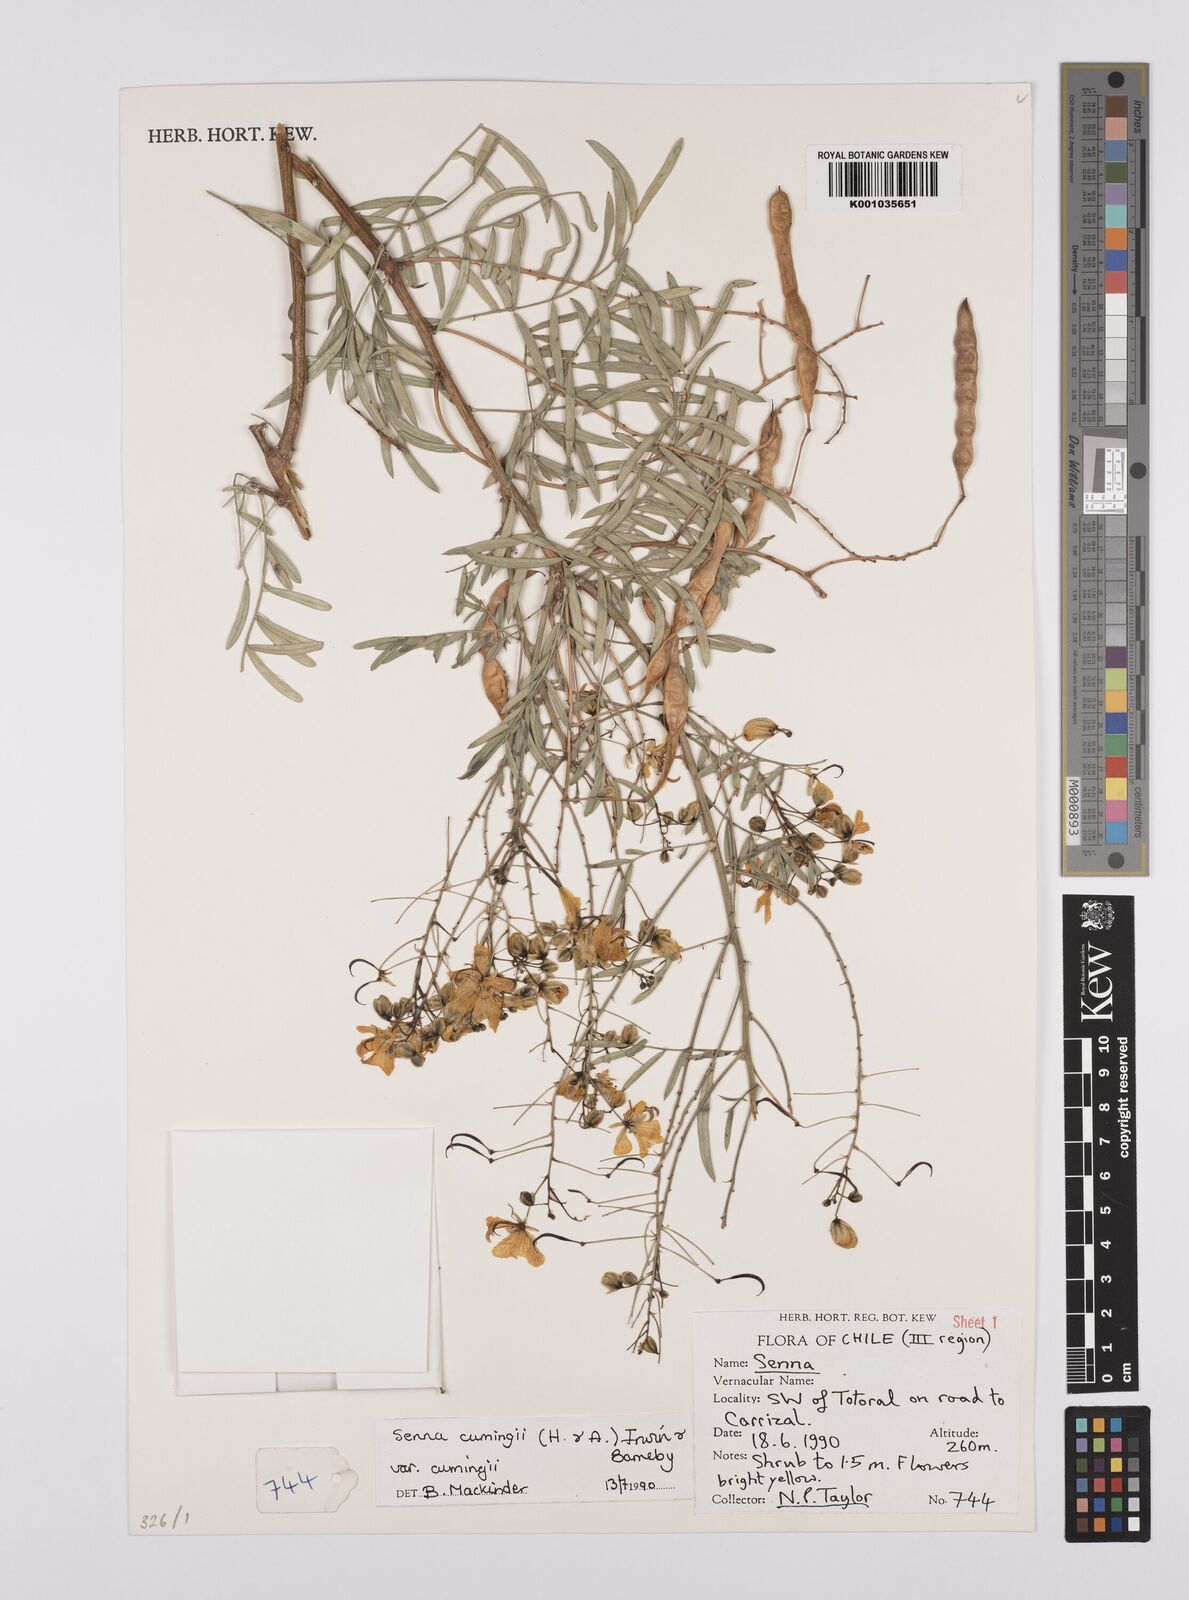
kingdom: Plantae
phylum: Tracheophyta
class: Magnoliopsida
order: Fabales
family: Fabaceae
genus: Senna
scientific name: Senna cumingii
